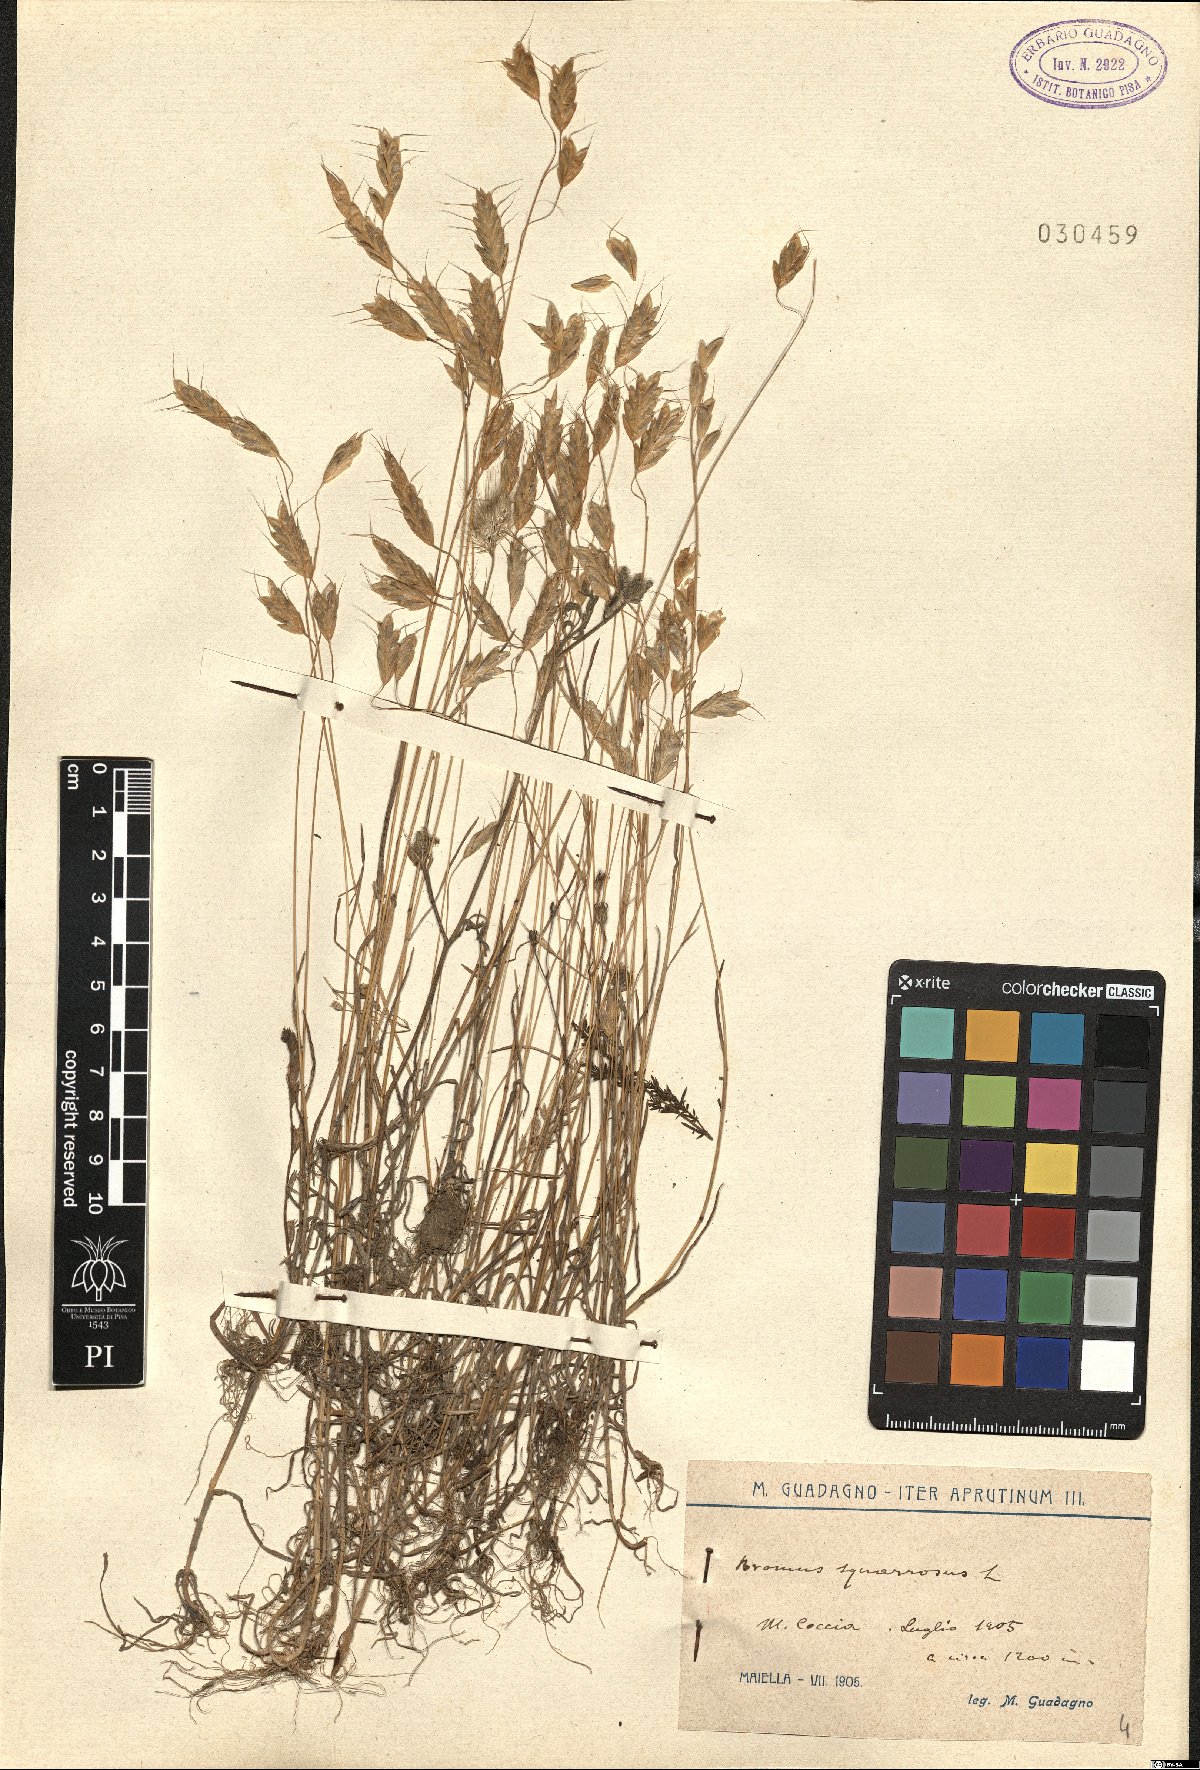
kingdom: Plantae
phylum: Tracheophyta
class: Liliopsida
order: Poales
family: Poaceae
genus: Bromus
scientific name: Bromus squarrosus
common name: Corn brome
